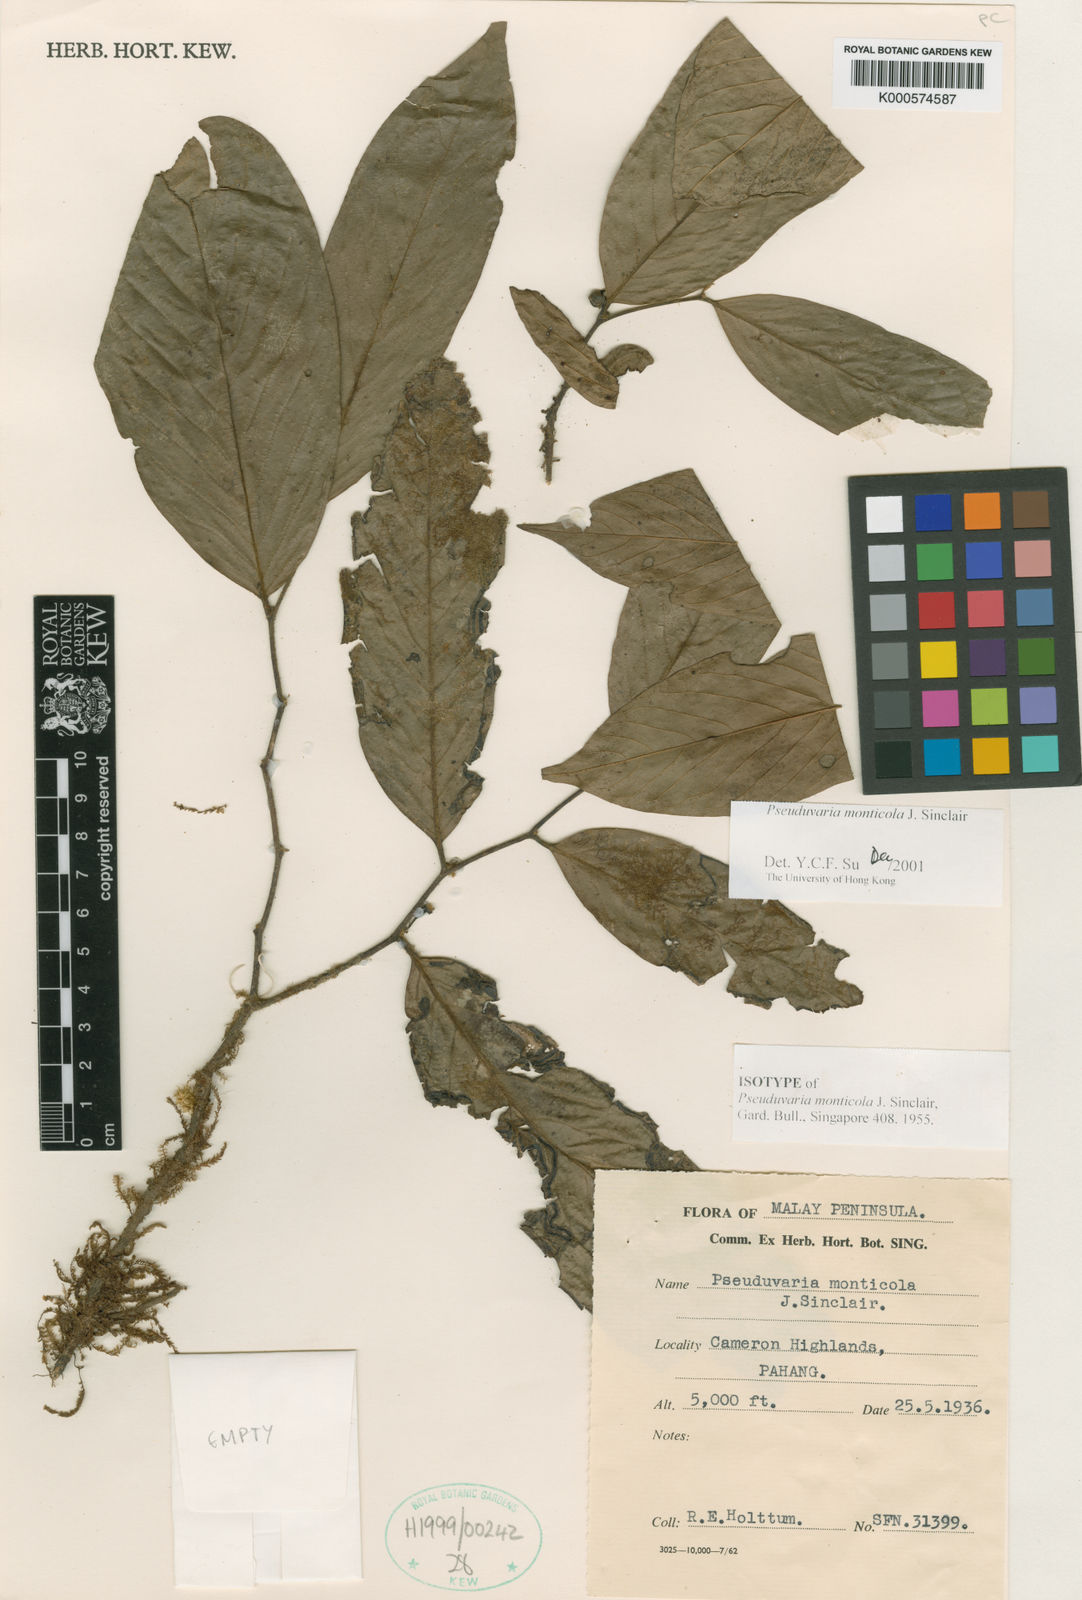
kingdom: Plantae
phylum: Tracheophyta
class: Magnoliopsida
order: Magnoliales
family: Annonaceae
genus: Pseuduvaria
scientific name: Pseuduvaria monticola
